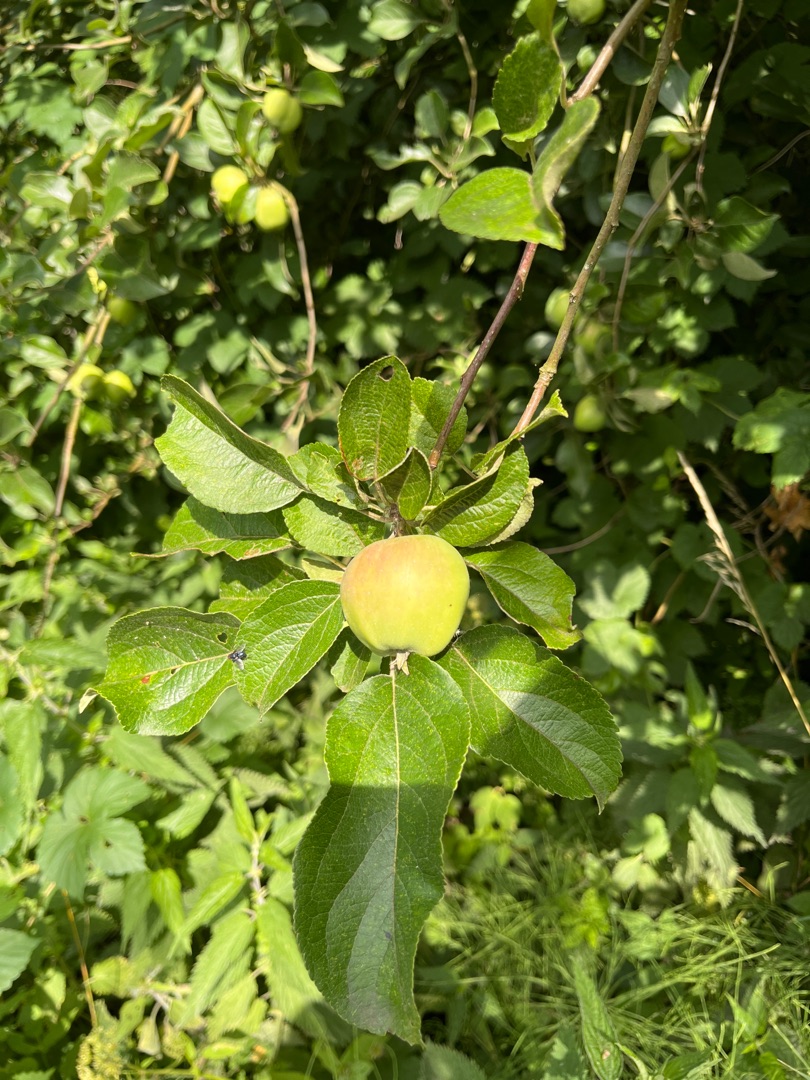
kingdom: Plantae
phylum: Tracheophyta
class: Magnoliopsida
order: Rosales
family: Rosaceae
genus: Malus
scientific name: Malus
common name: Æbleslægten
